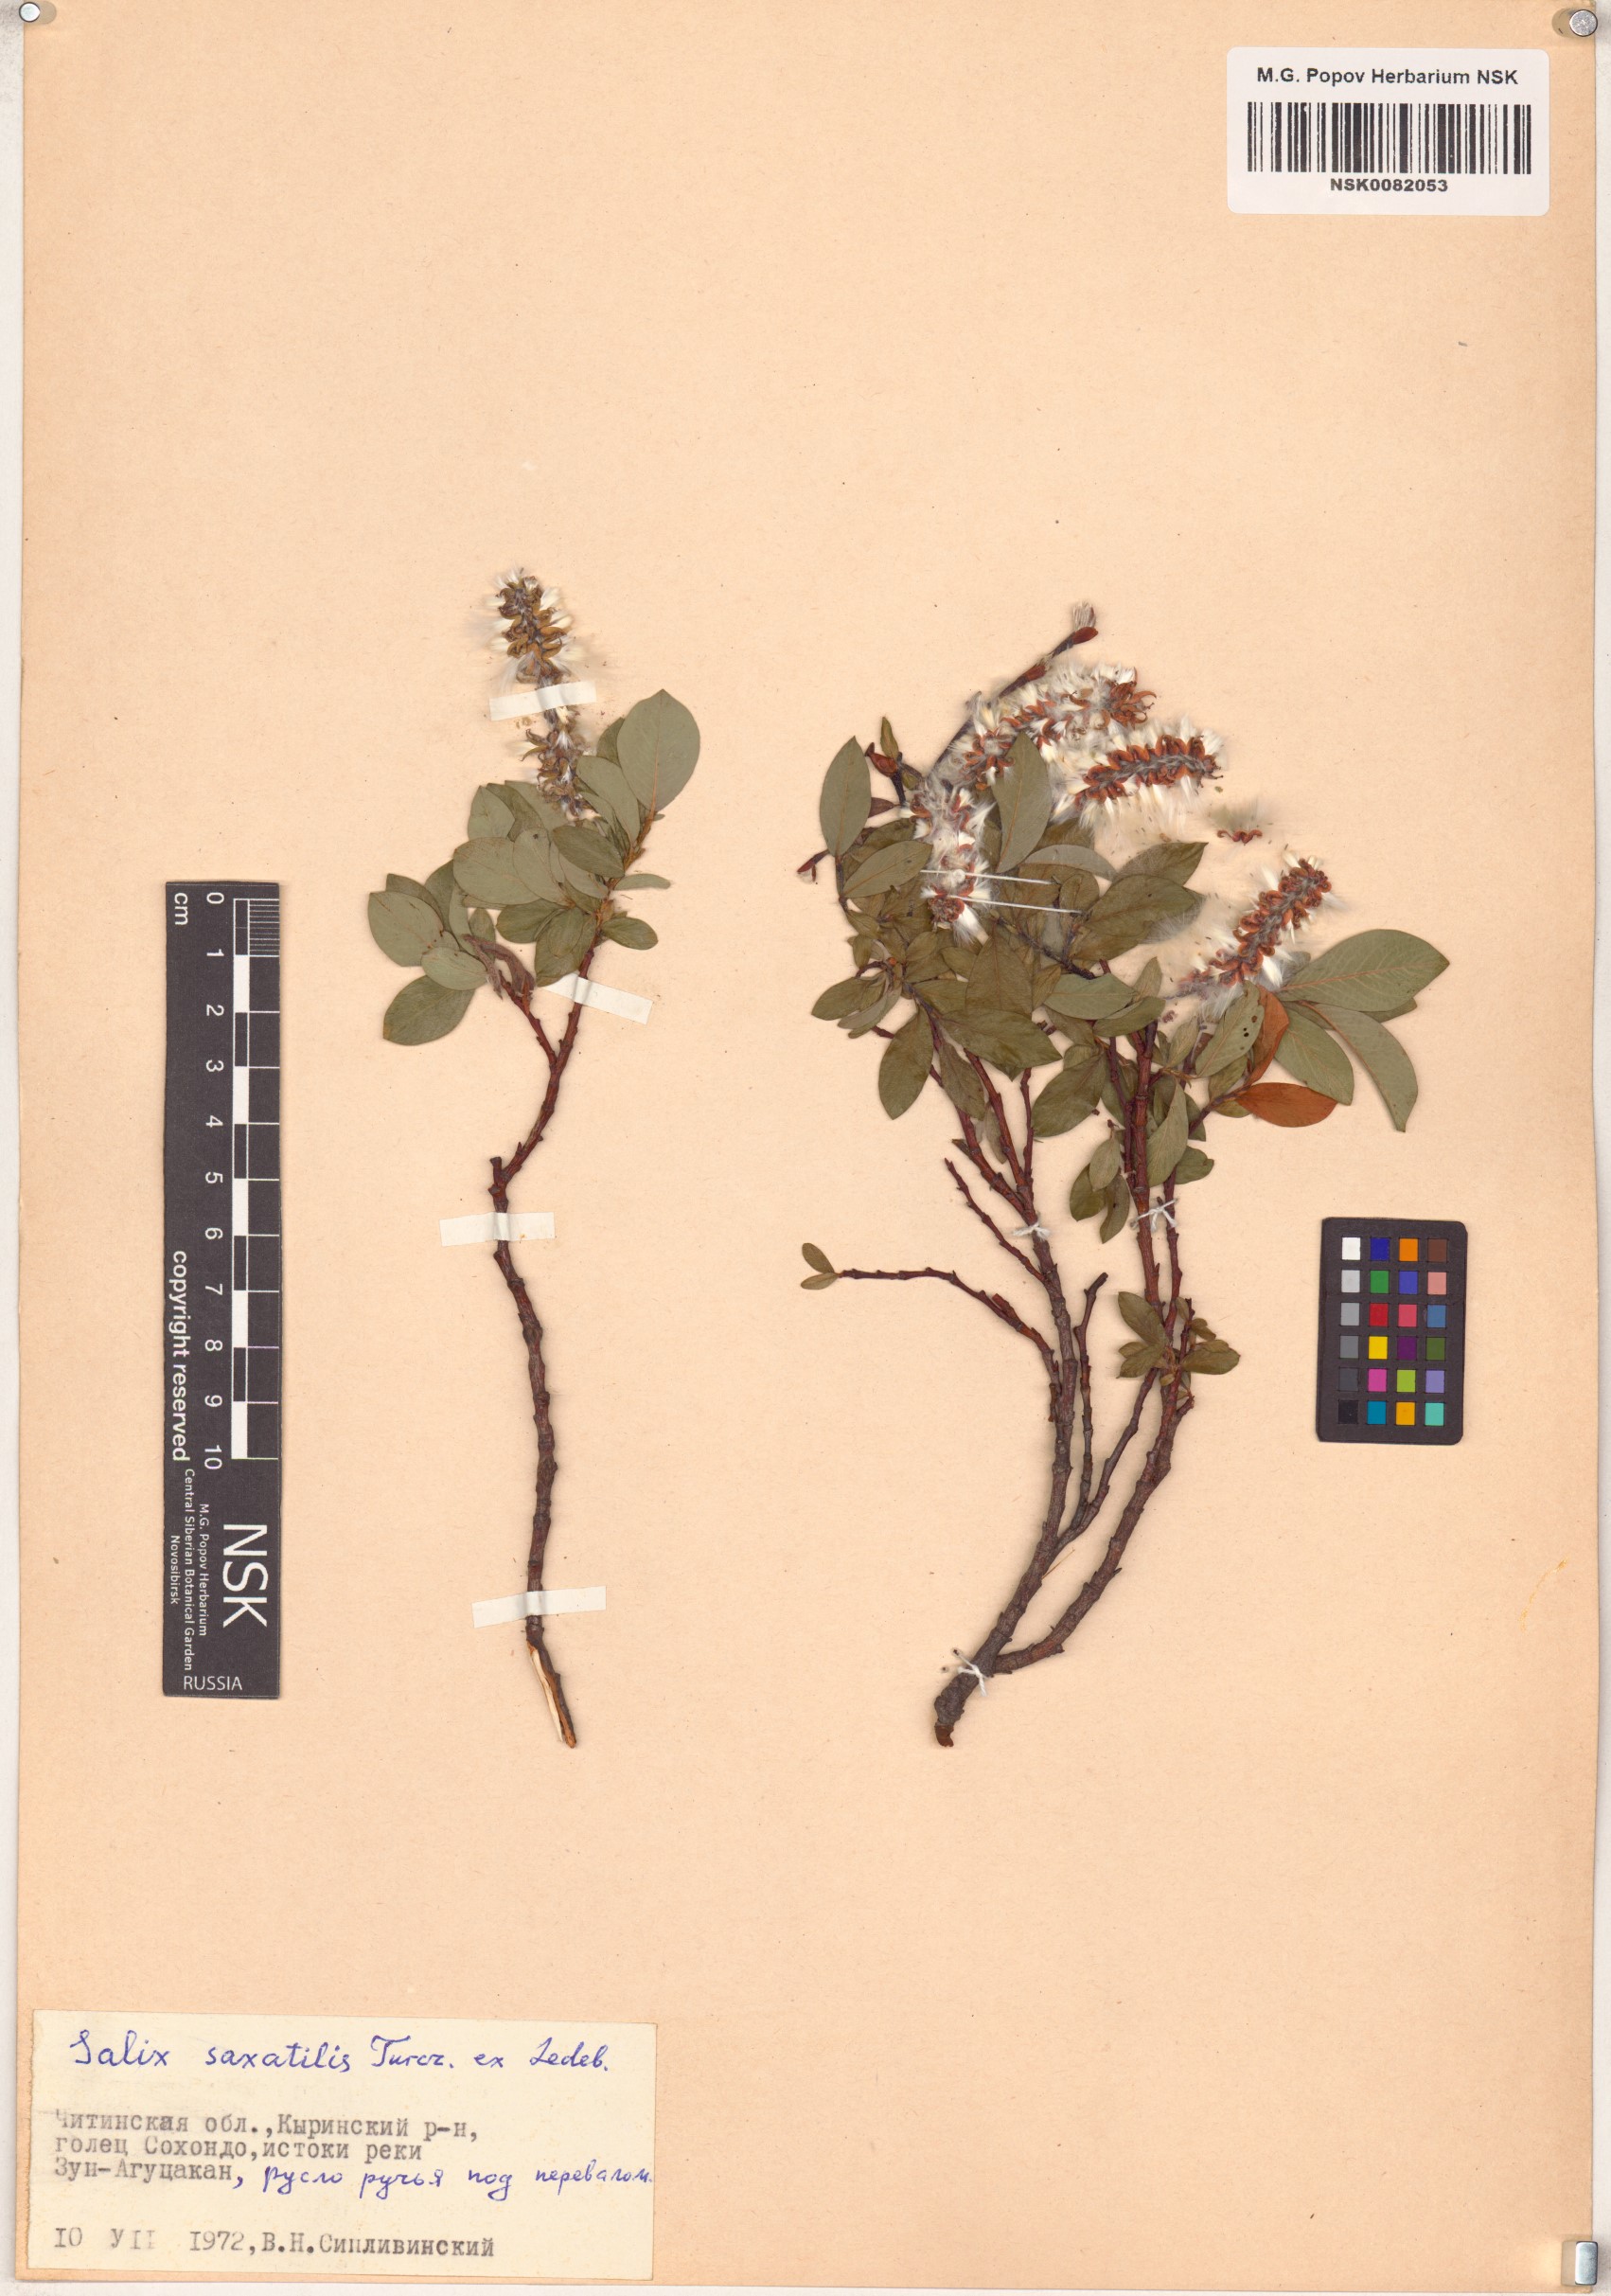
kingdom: Plantae
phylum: Tracheophyta
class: Magnoliopsida
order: Malpighiales
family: Salicaceae
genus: Salix
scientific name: Salix saxatilis
